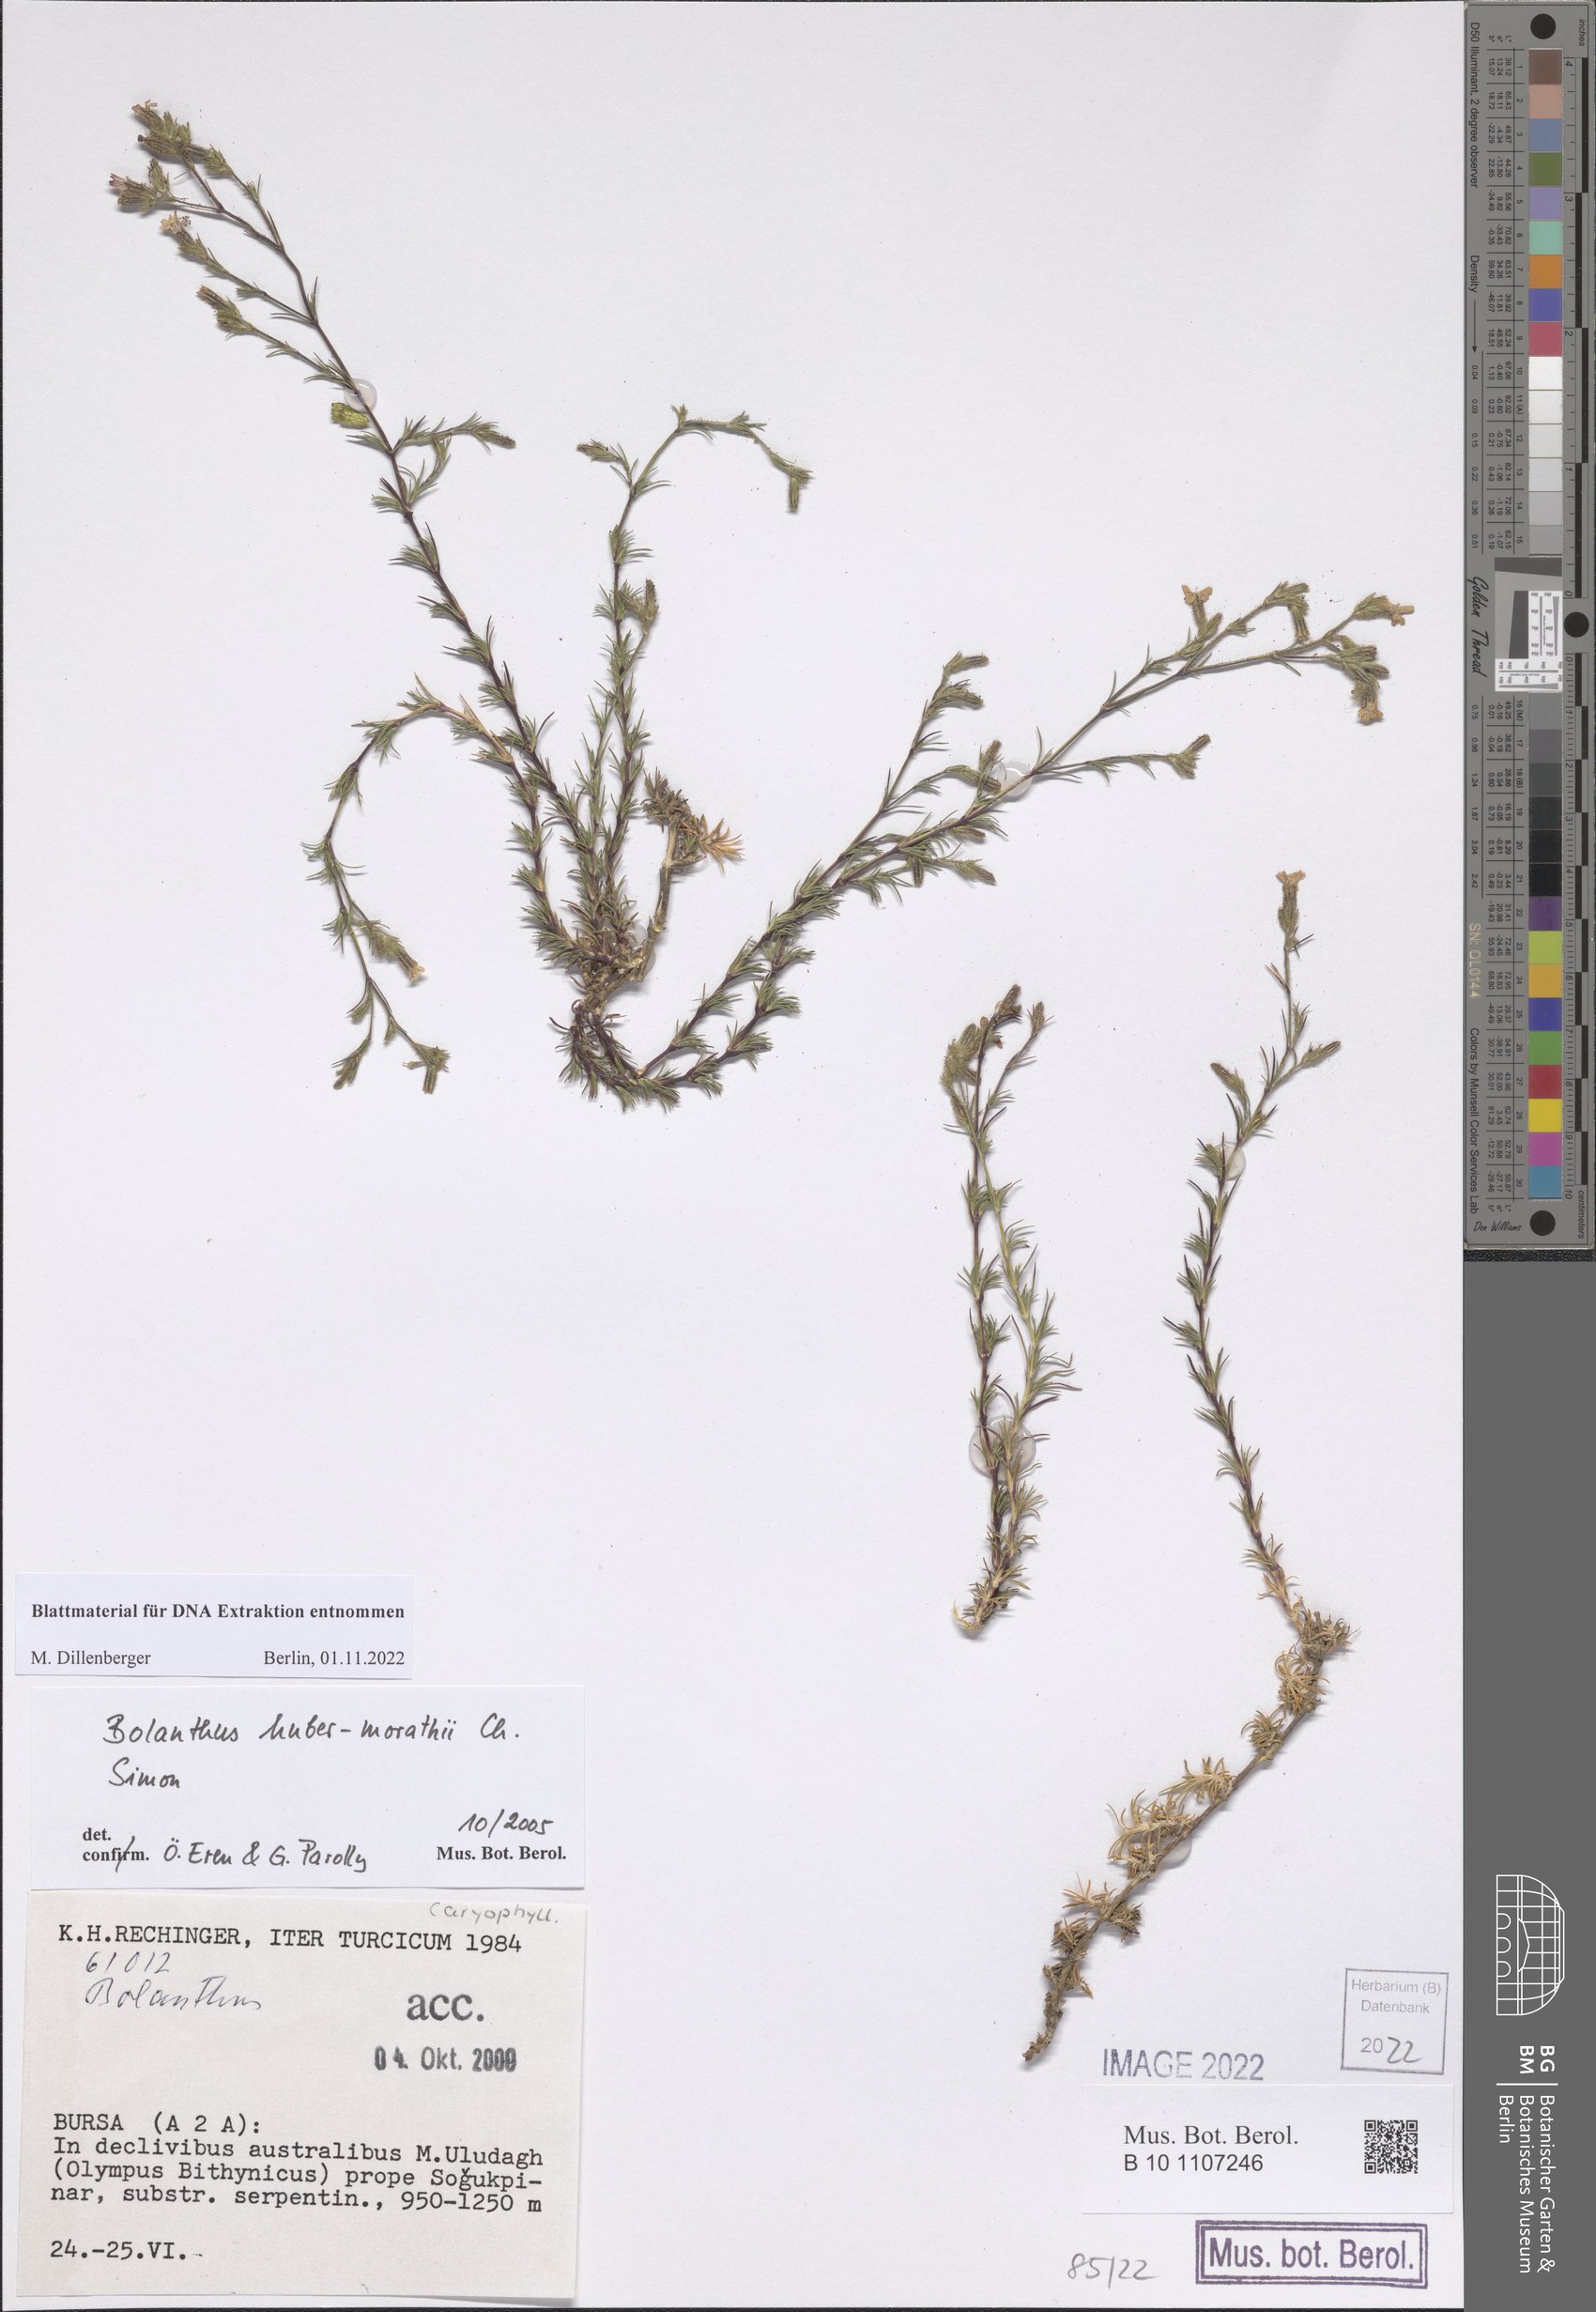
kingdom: Plantae
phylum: Tracheophyta
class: Magnoliopsida
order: Caryophyllales
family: Caryophyllaceae
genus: Bolanthus
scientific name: Bolanthus huber-morathii
